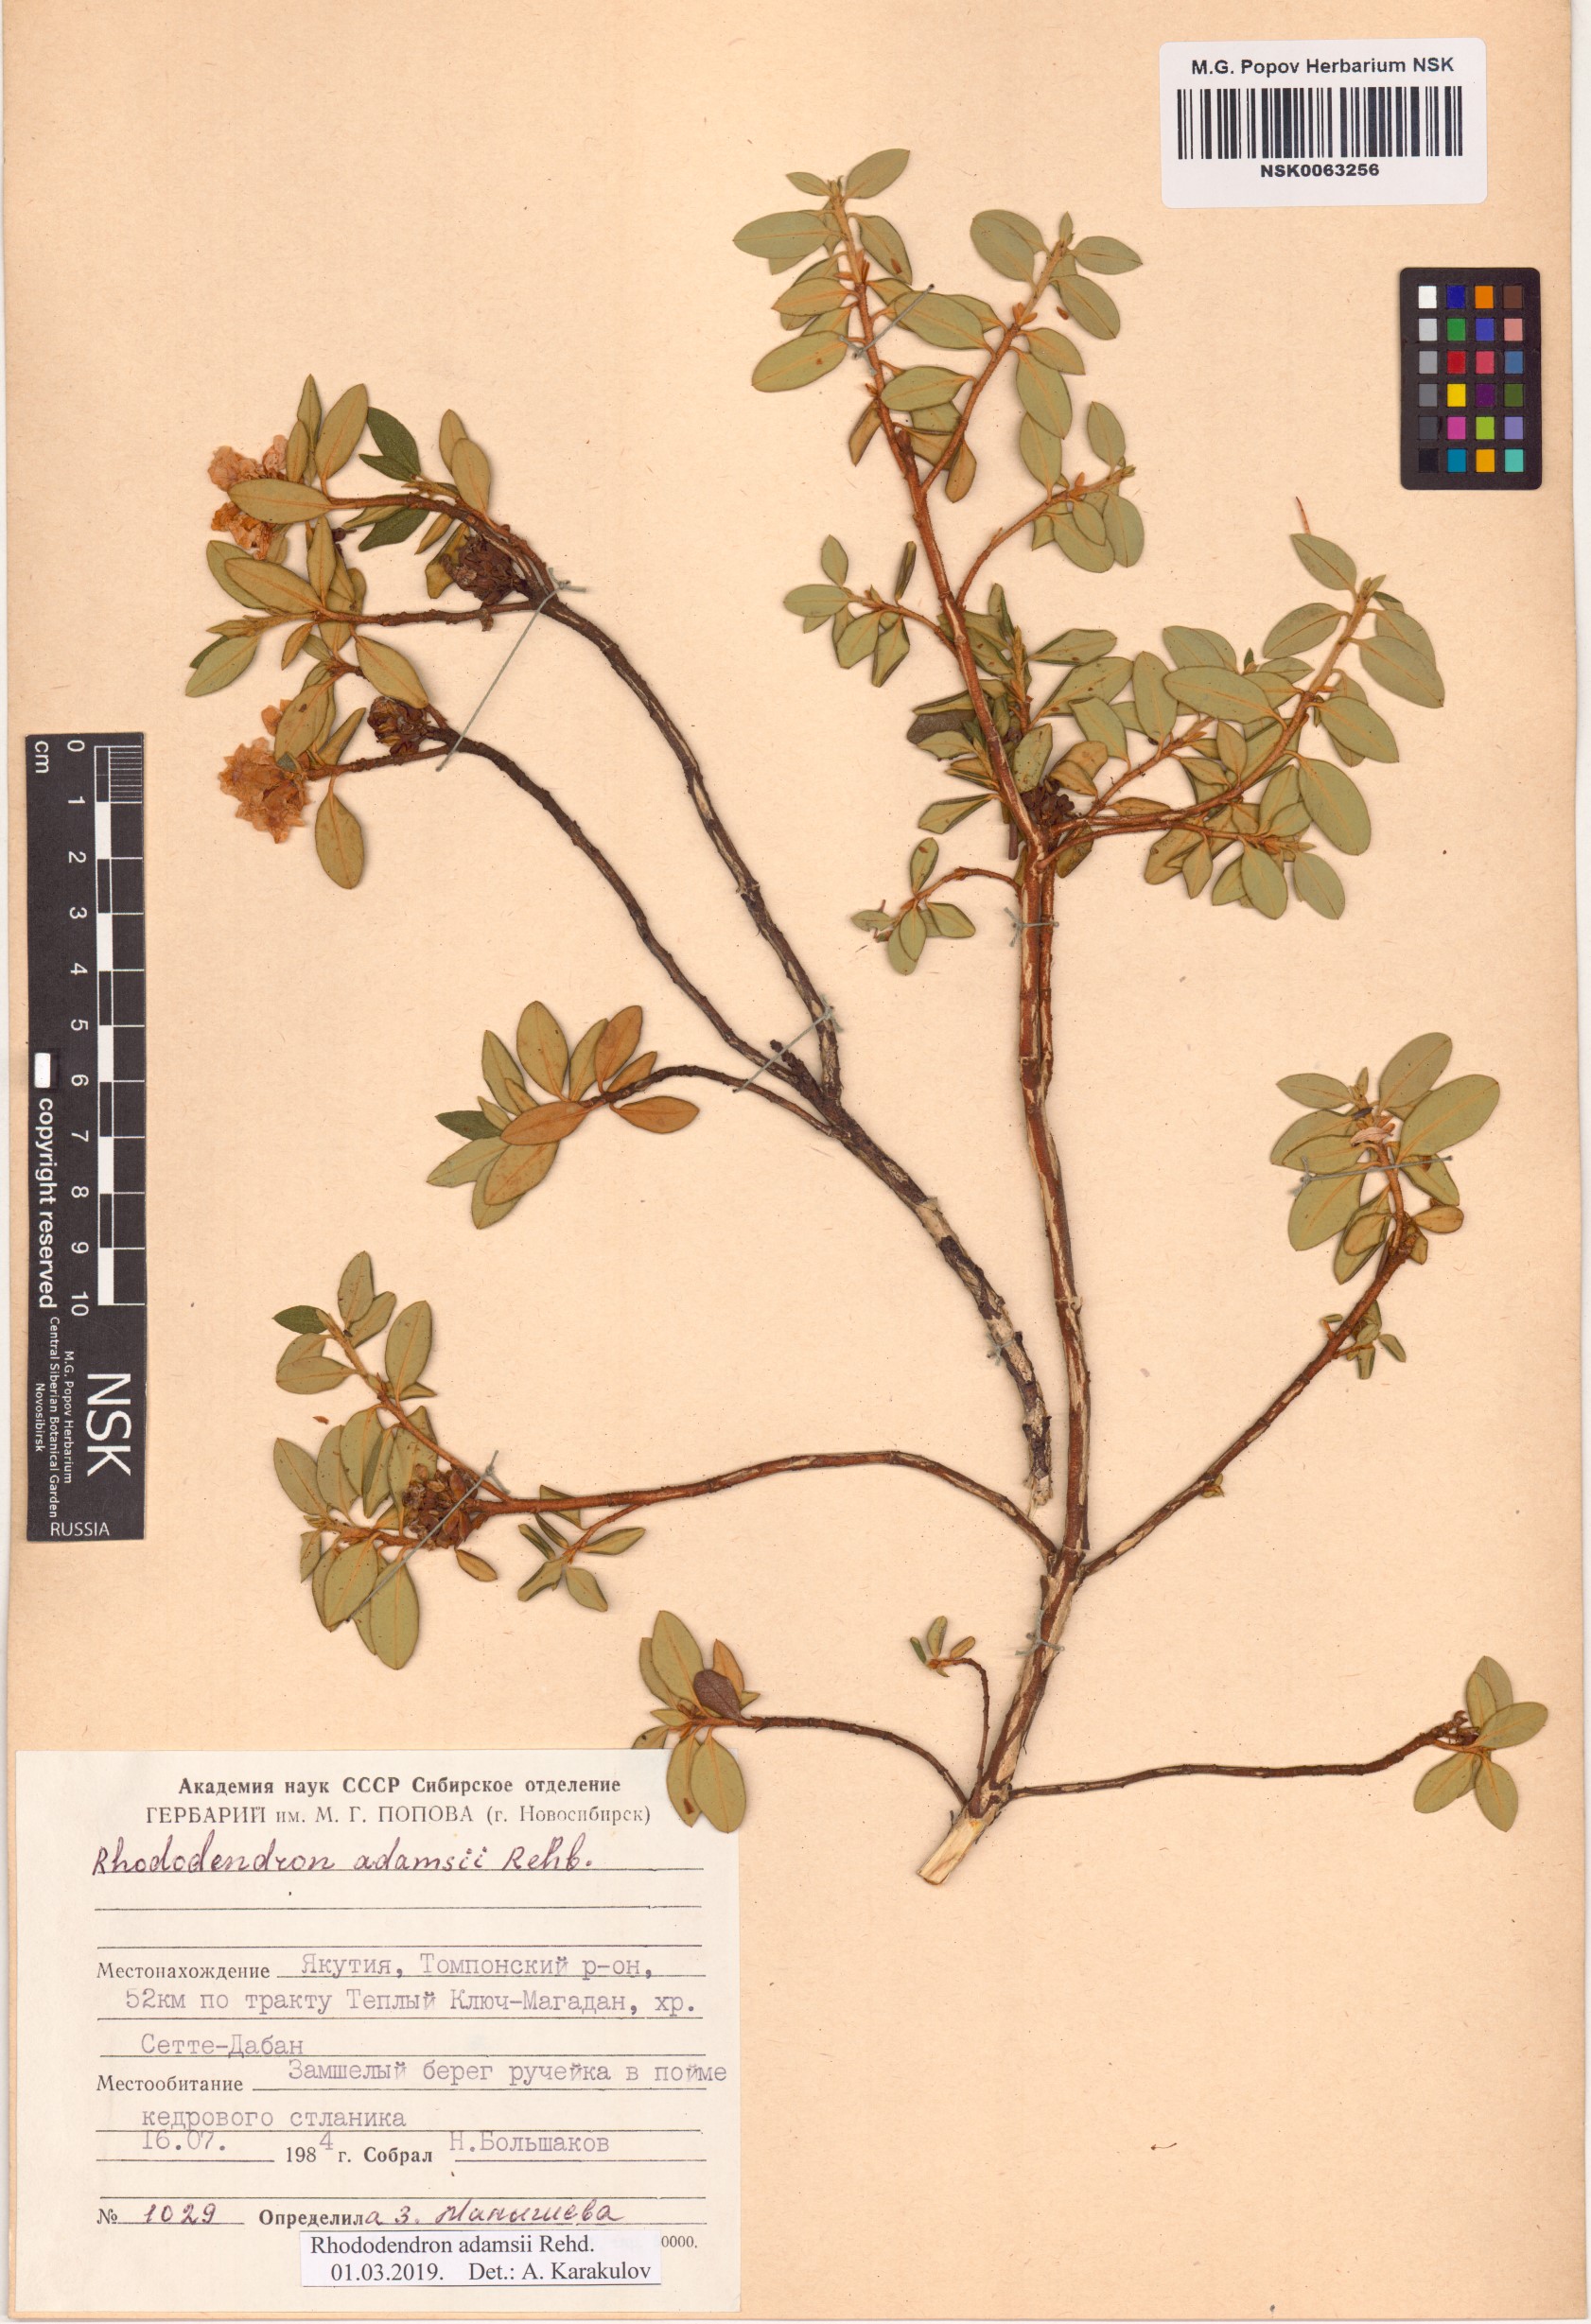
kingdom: Plantae
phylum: Tracheophyta
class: Magnoliopsida
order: Ericales
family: Ericaceae
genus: Rhododendron
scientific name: Rhododendron adamsii
